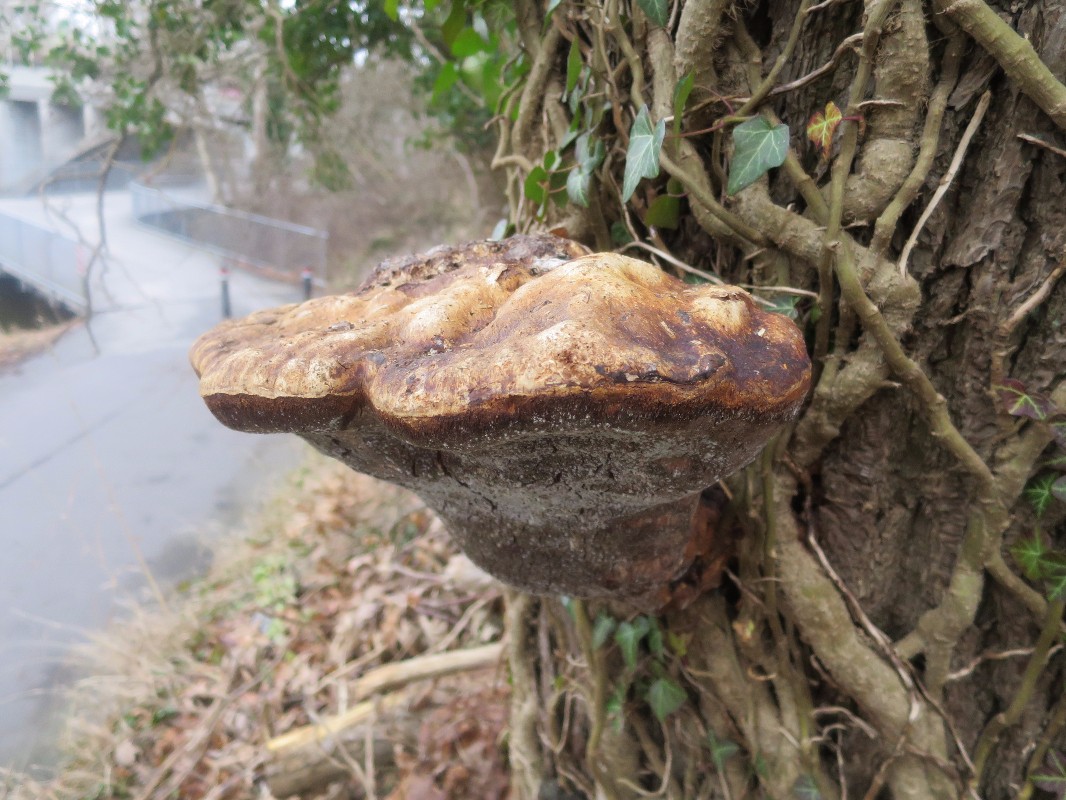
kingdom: Fungi
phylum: Basidiomycota
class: Agaricomycetes
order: Hymenochaetales
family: Hymenochaetaceae
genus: Pseudoinonotus
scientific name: Pseudoinonotus dryadeus
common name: ege-spejlporesvamp
